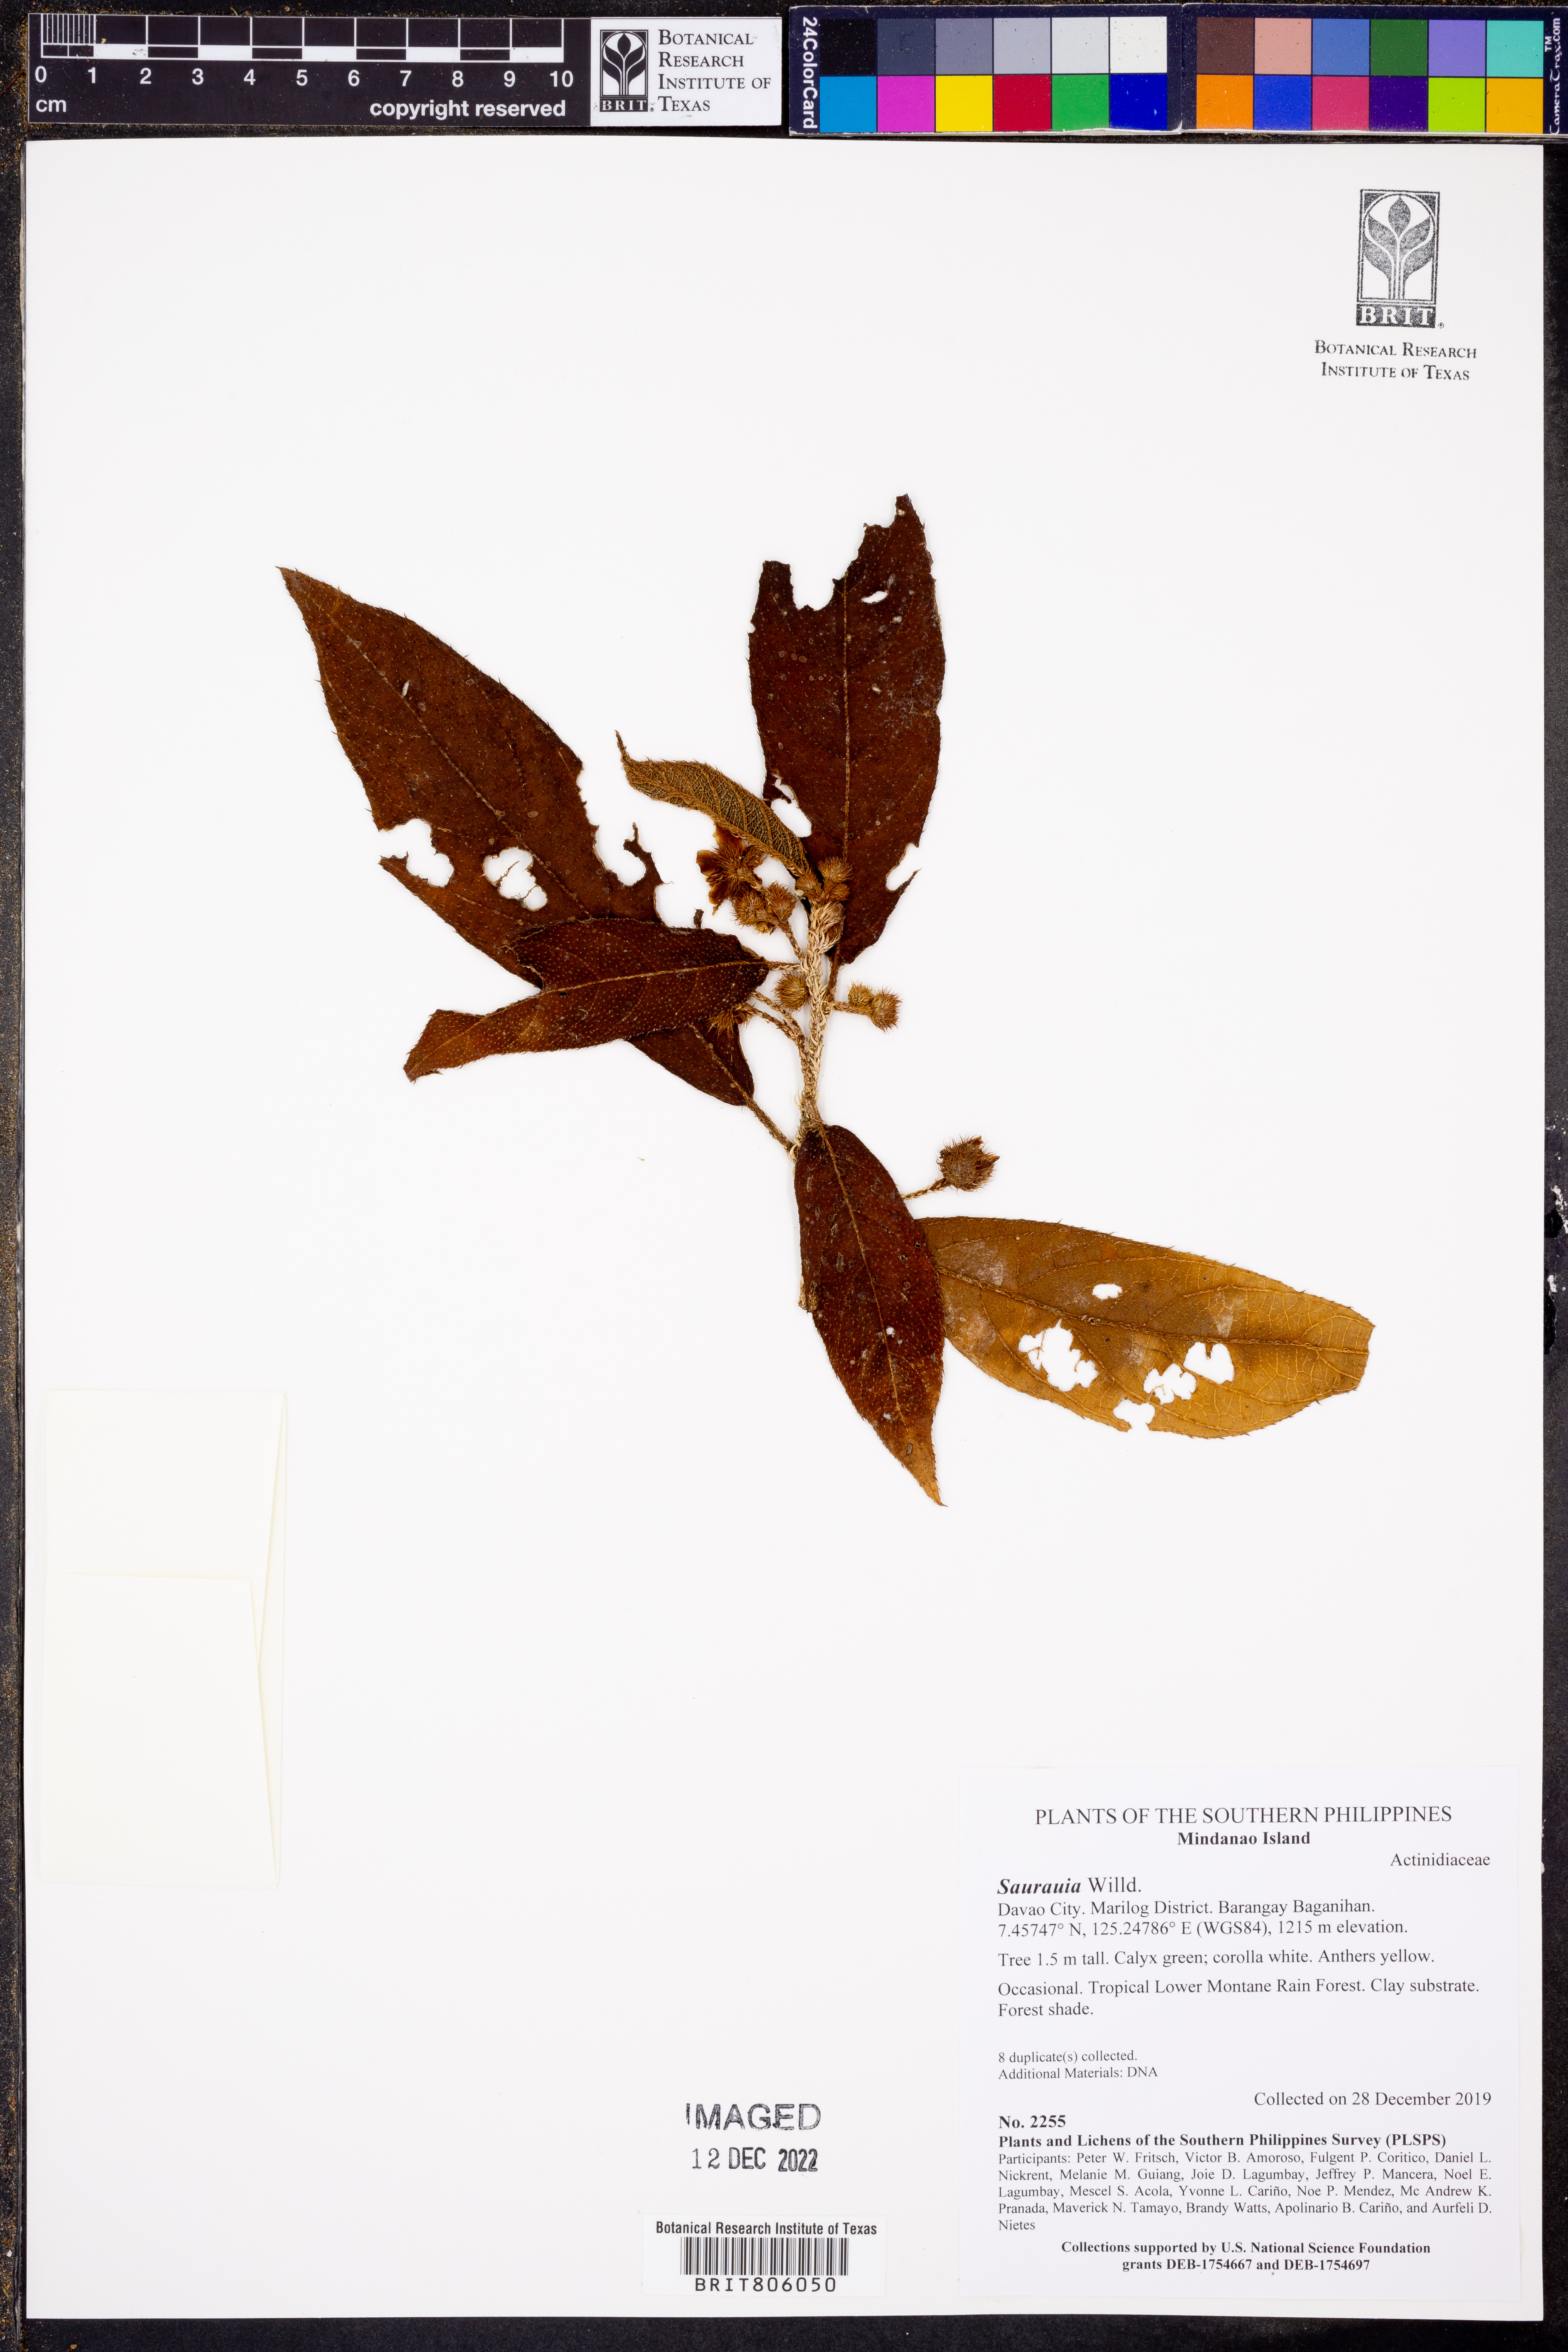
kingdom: Plantae
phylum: Tracheophyta
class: Magnoliopsida
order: Ericales
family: Actinidiaceae
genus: Saurauia
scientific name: Saurauia
